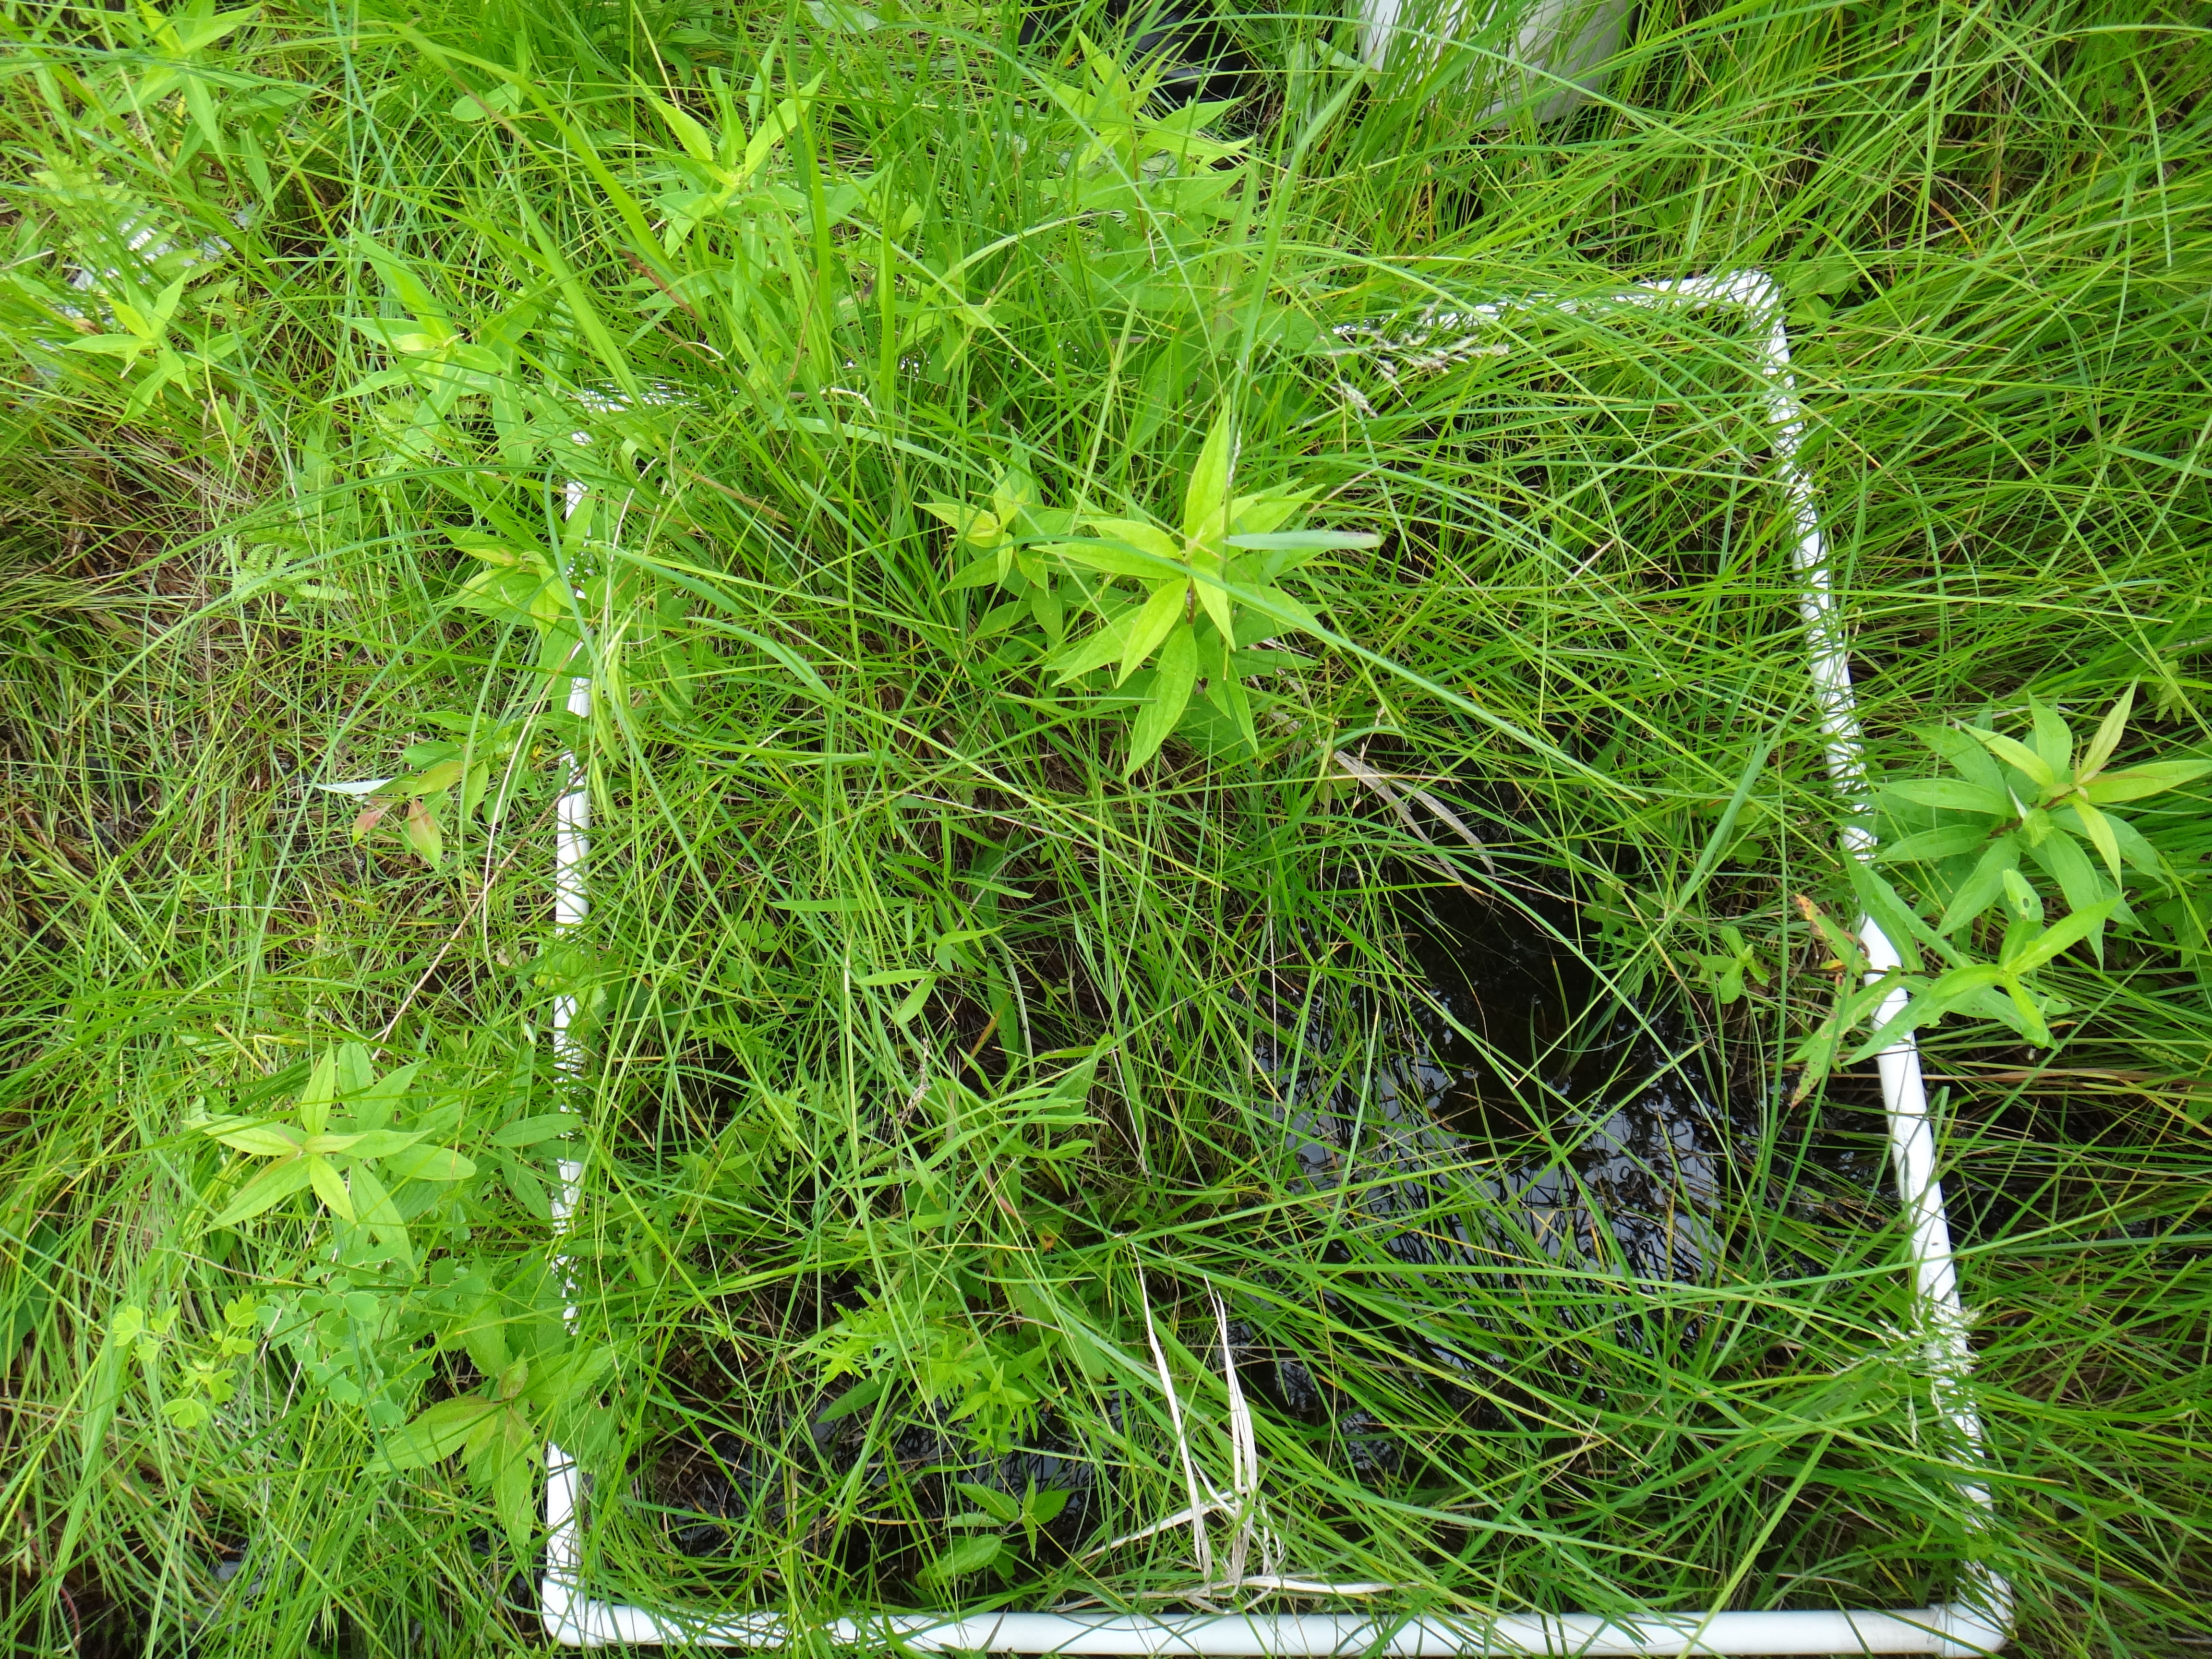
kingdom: Plantae
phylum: Tracheophyta
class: Liliopsida
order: Poales
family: Poaceae
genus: Glyceria
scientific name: Glyceria striata
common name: Fowl manna grass
